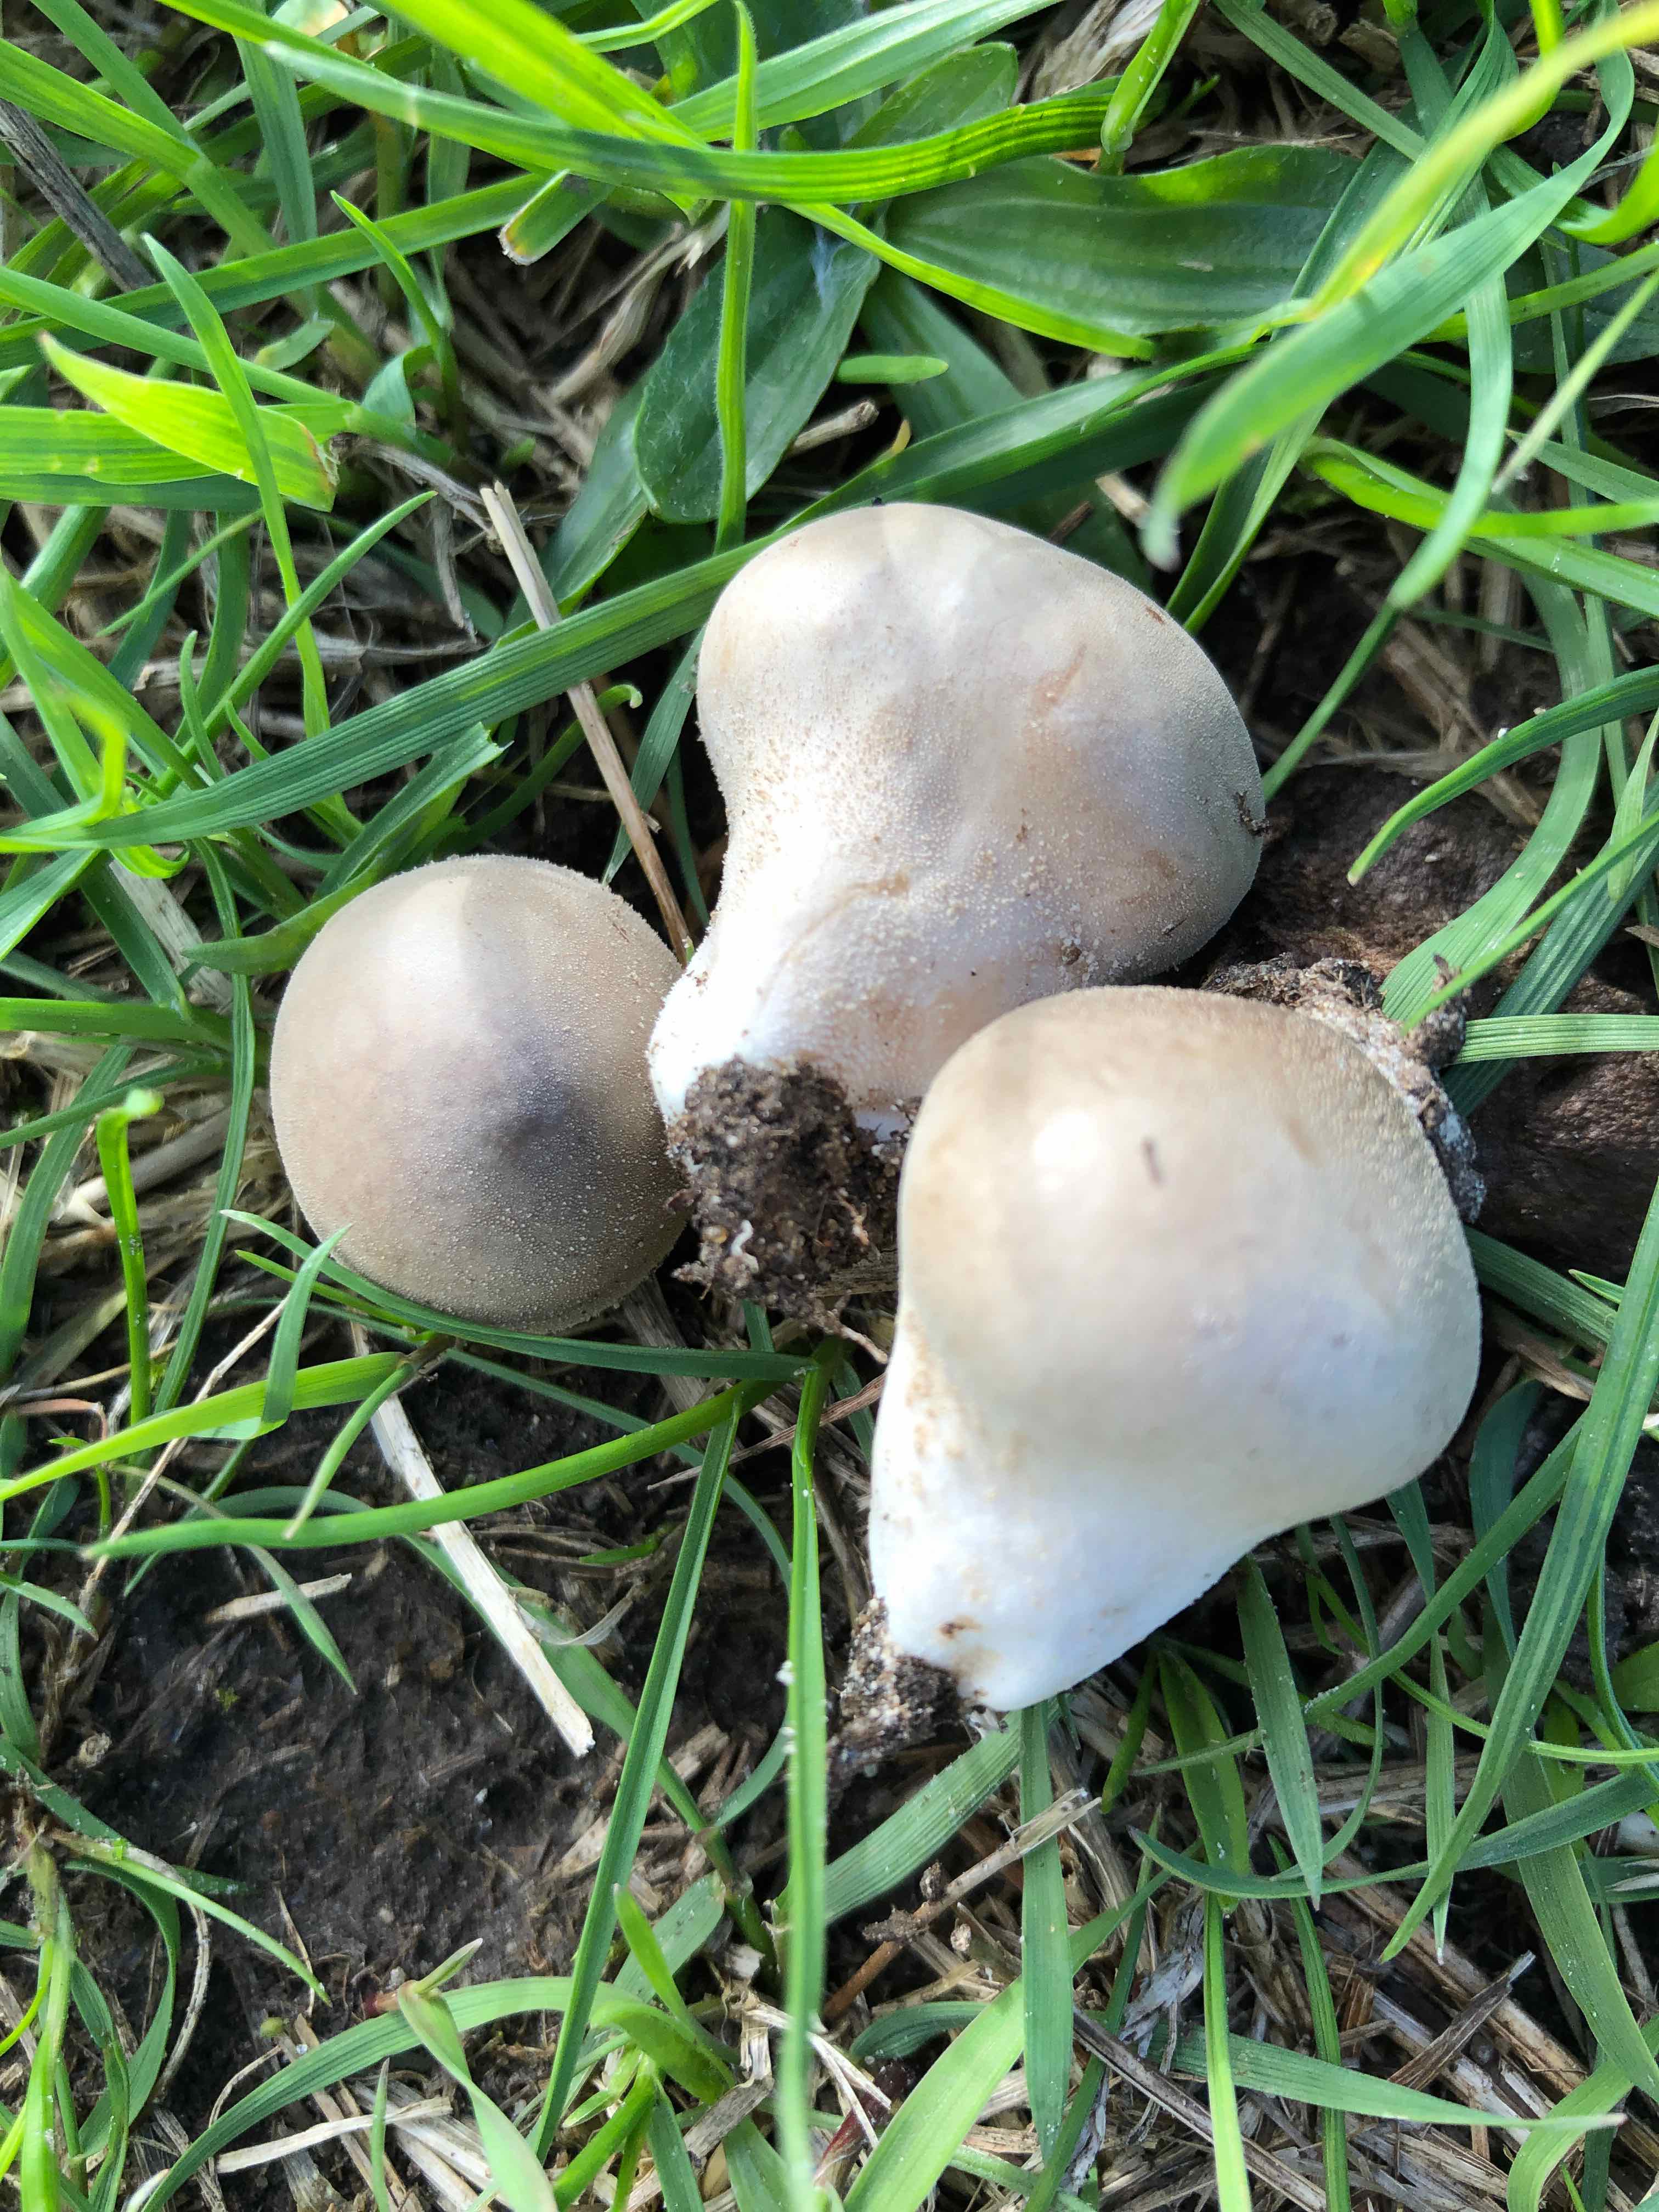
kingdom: Fungi
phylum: Basidiomycota
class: Agaricomycetes
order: Agaricales
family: Lycoperdaceae
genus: Lycoperdon
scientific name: Lycoperdon lividum
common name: mark-støvbold
